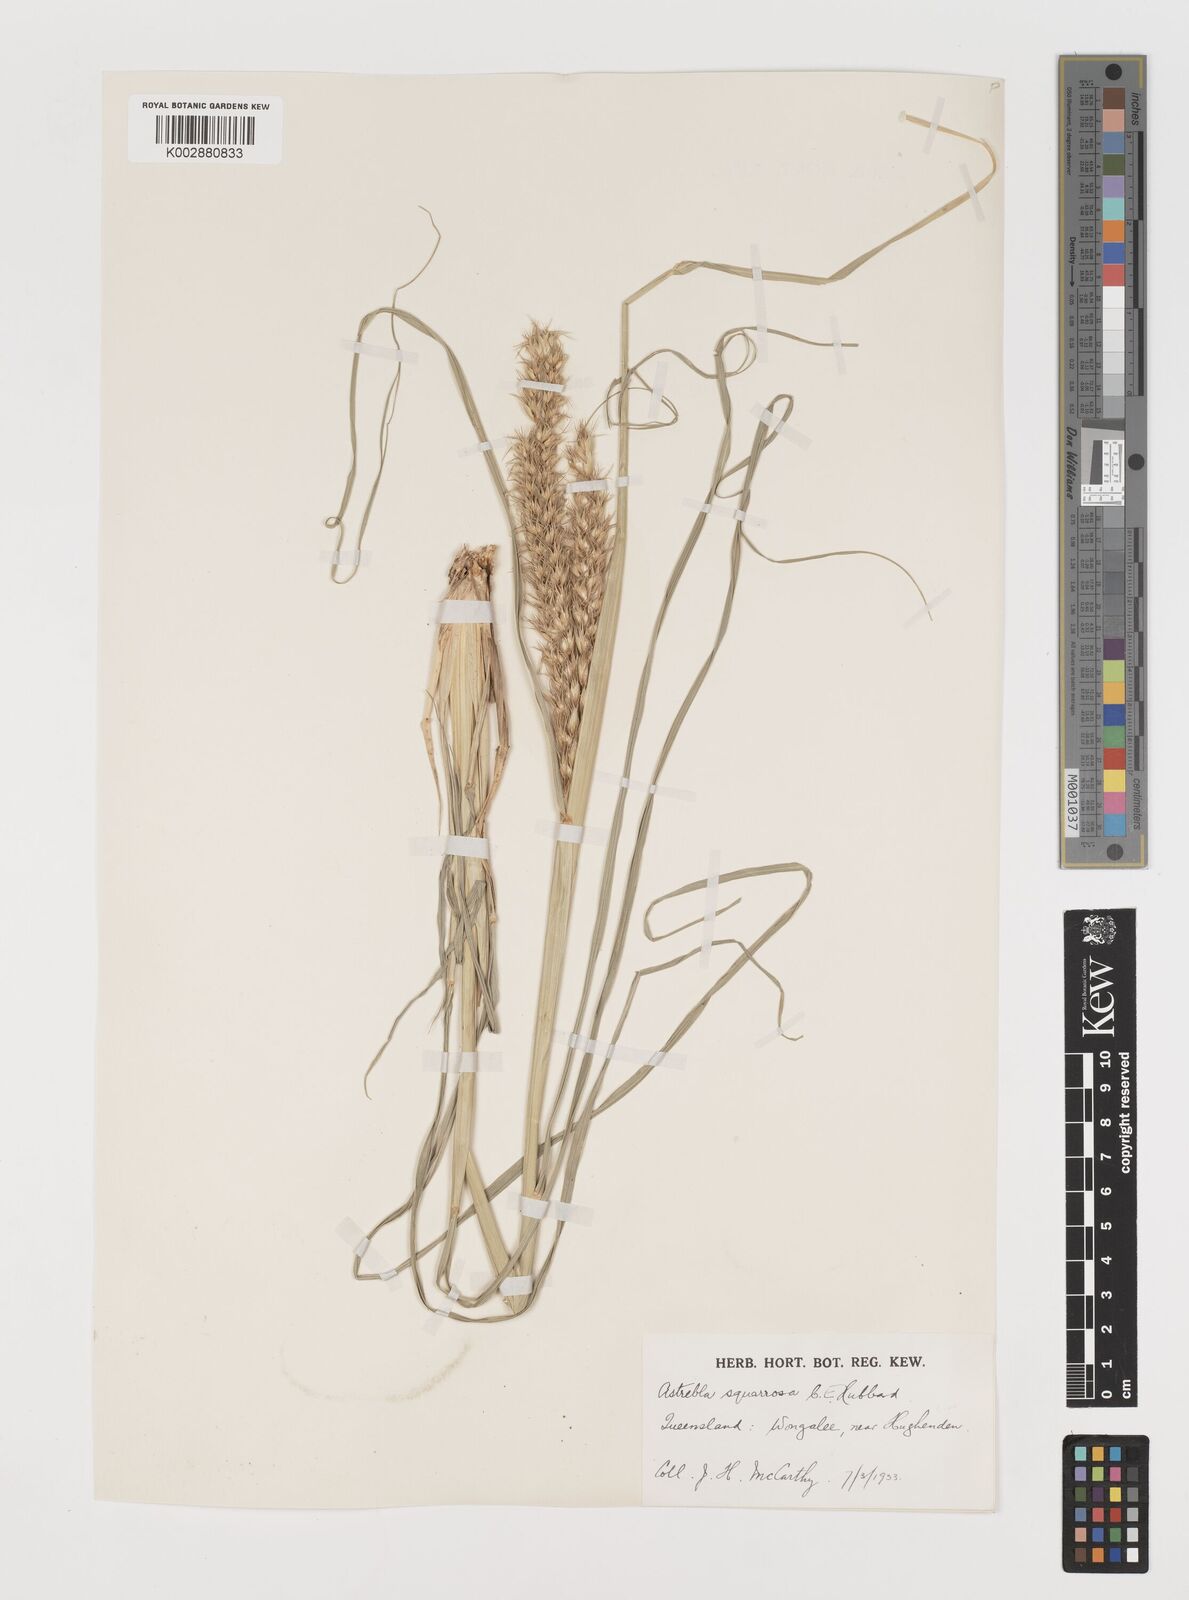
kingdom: Plantae
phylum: Tracheophyta
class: Liliopsida
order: Poales
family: Poaceae
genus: Astrebla
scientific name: Astrebla squarrosa
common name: Wheat-ear mitchell grass
